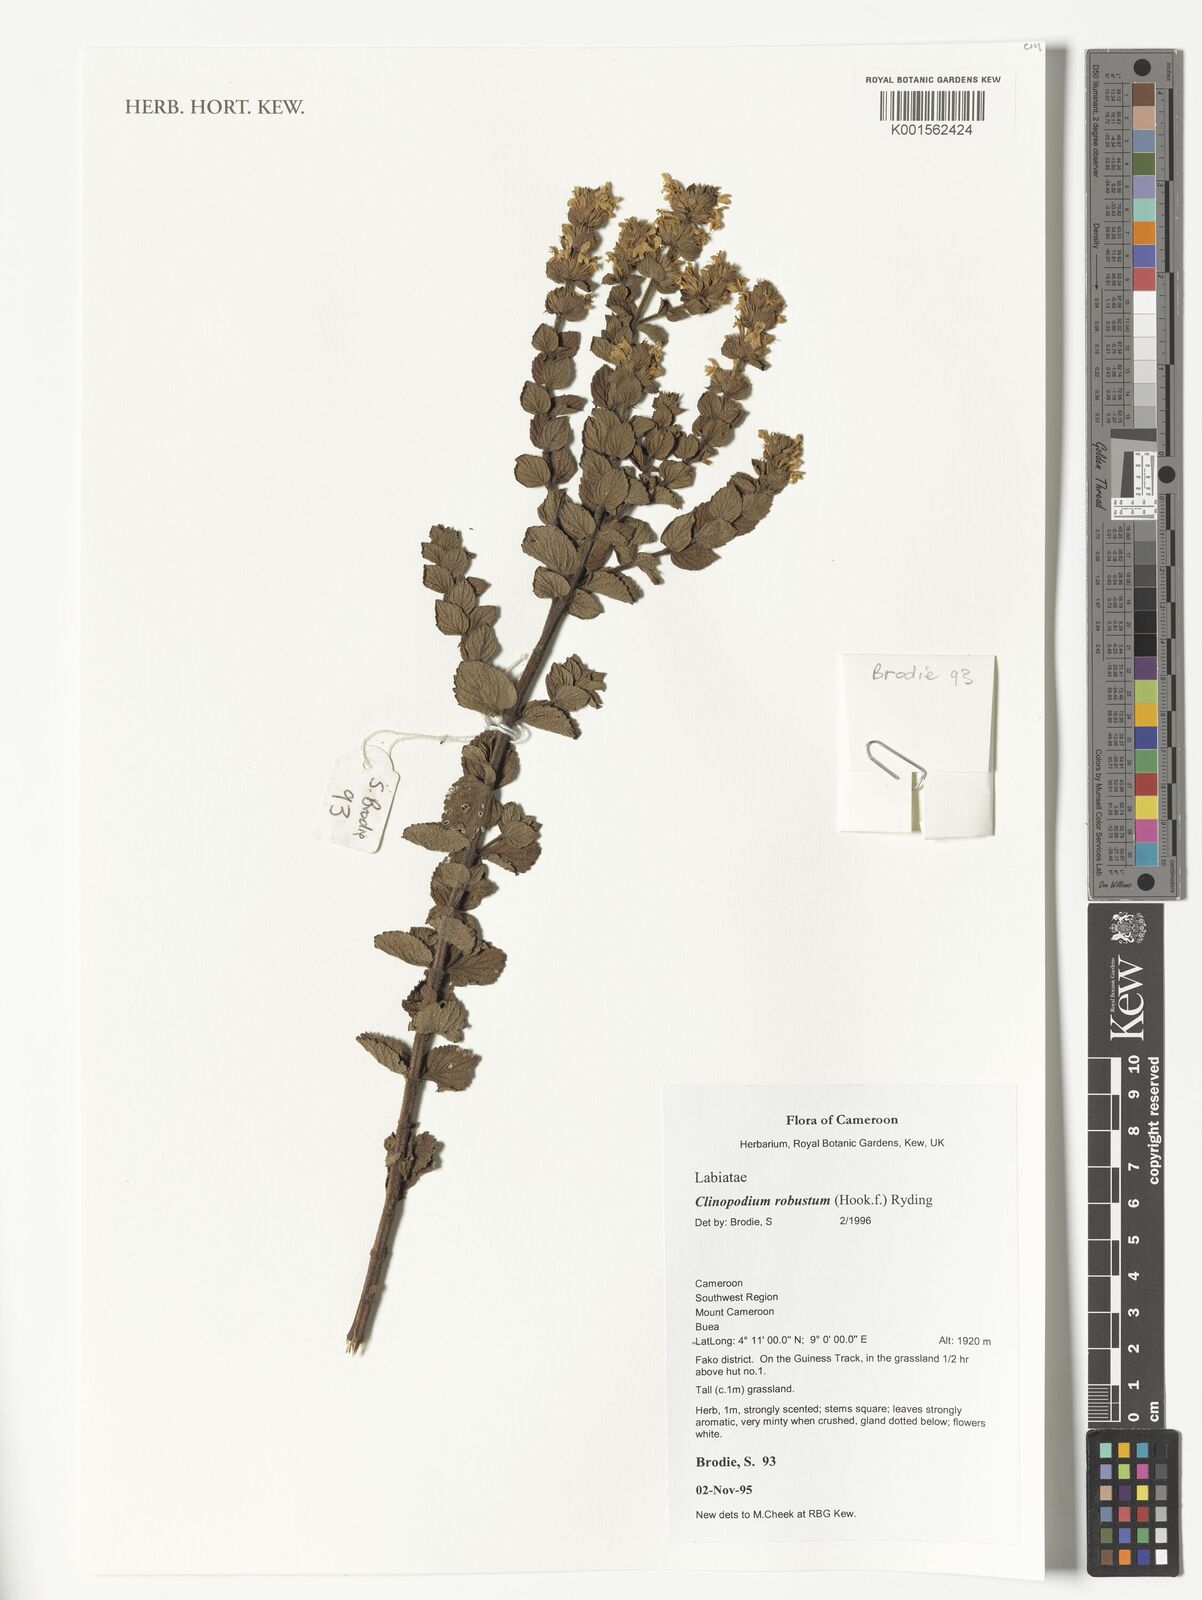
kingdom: Plantae
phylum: Tracheophyta
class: Magnoliopsida
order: Lamiales
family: Lamiaceae
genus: Clinopodium
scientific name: Clinopodium robustum
